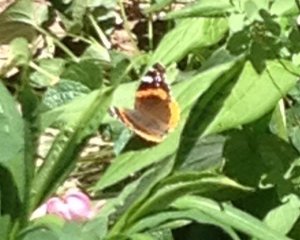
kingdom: Animalia
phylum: Arthropoda
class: Insecta
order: Lepidoptera
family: Nymphalidae
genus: Vanessa
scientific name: Vanessa atalanta
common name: Red Admiral
